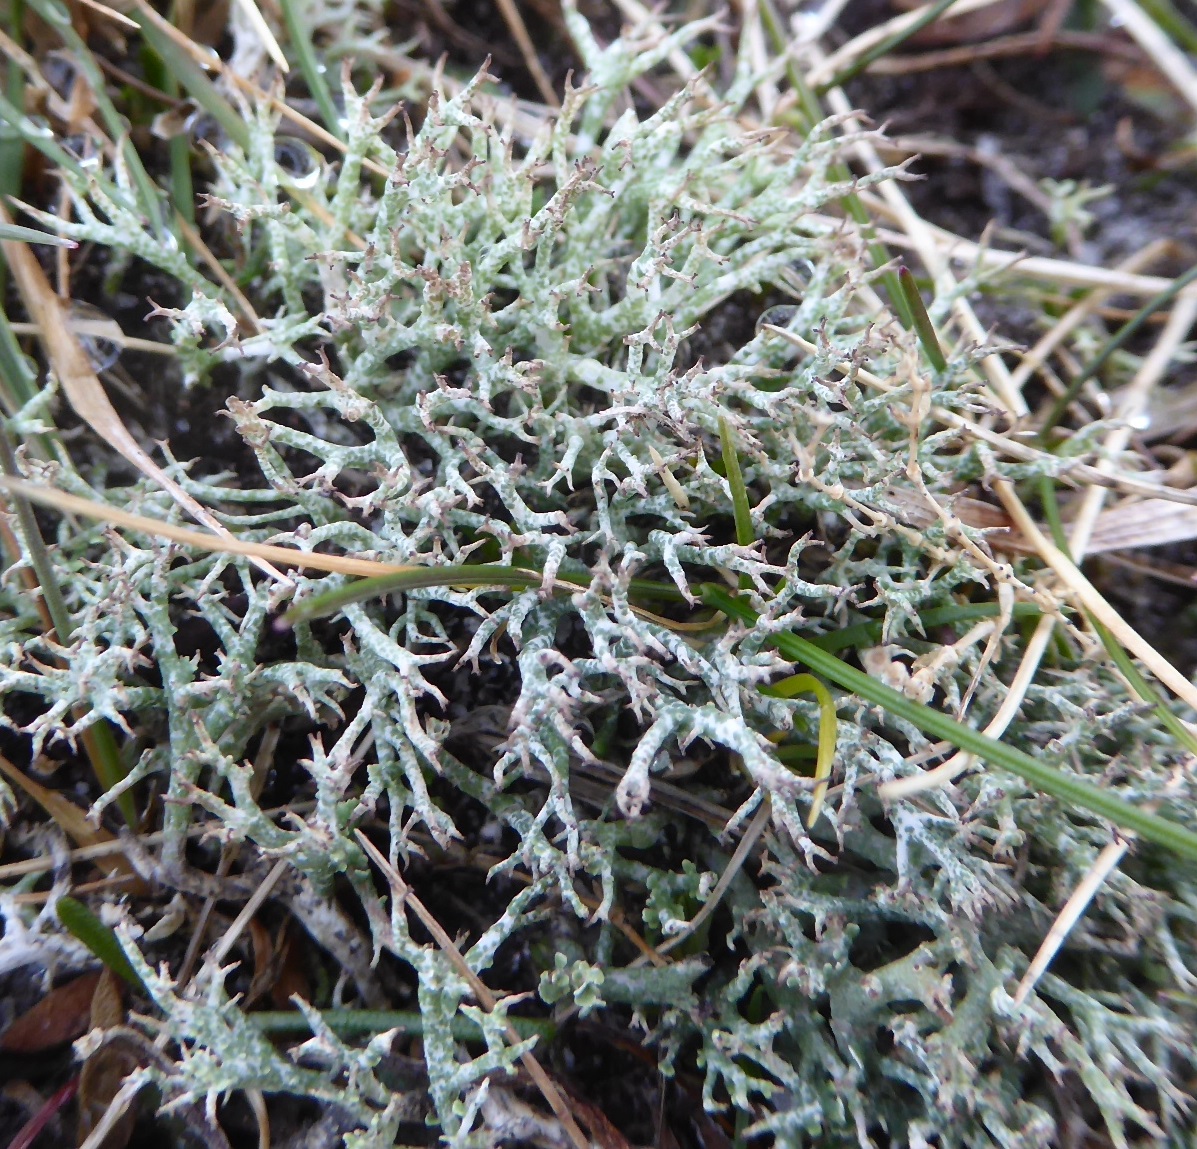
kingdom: Fungi
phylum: Ascomycota
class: Lecanoromycetes
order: Lecanorales
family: Cladoniaceae
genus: Cladonia
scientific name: Cladonia rangiformis
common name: spættet bægerlav
